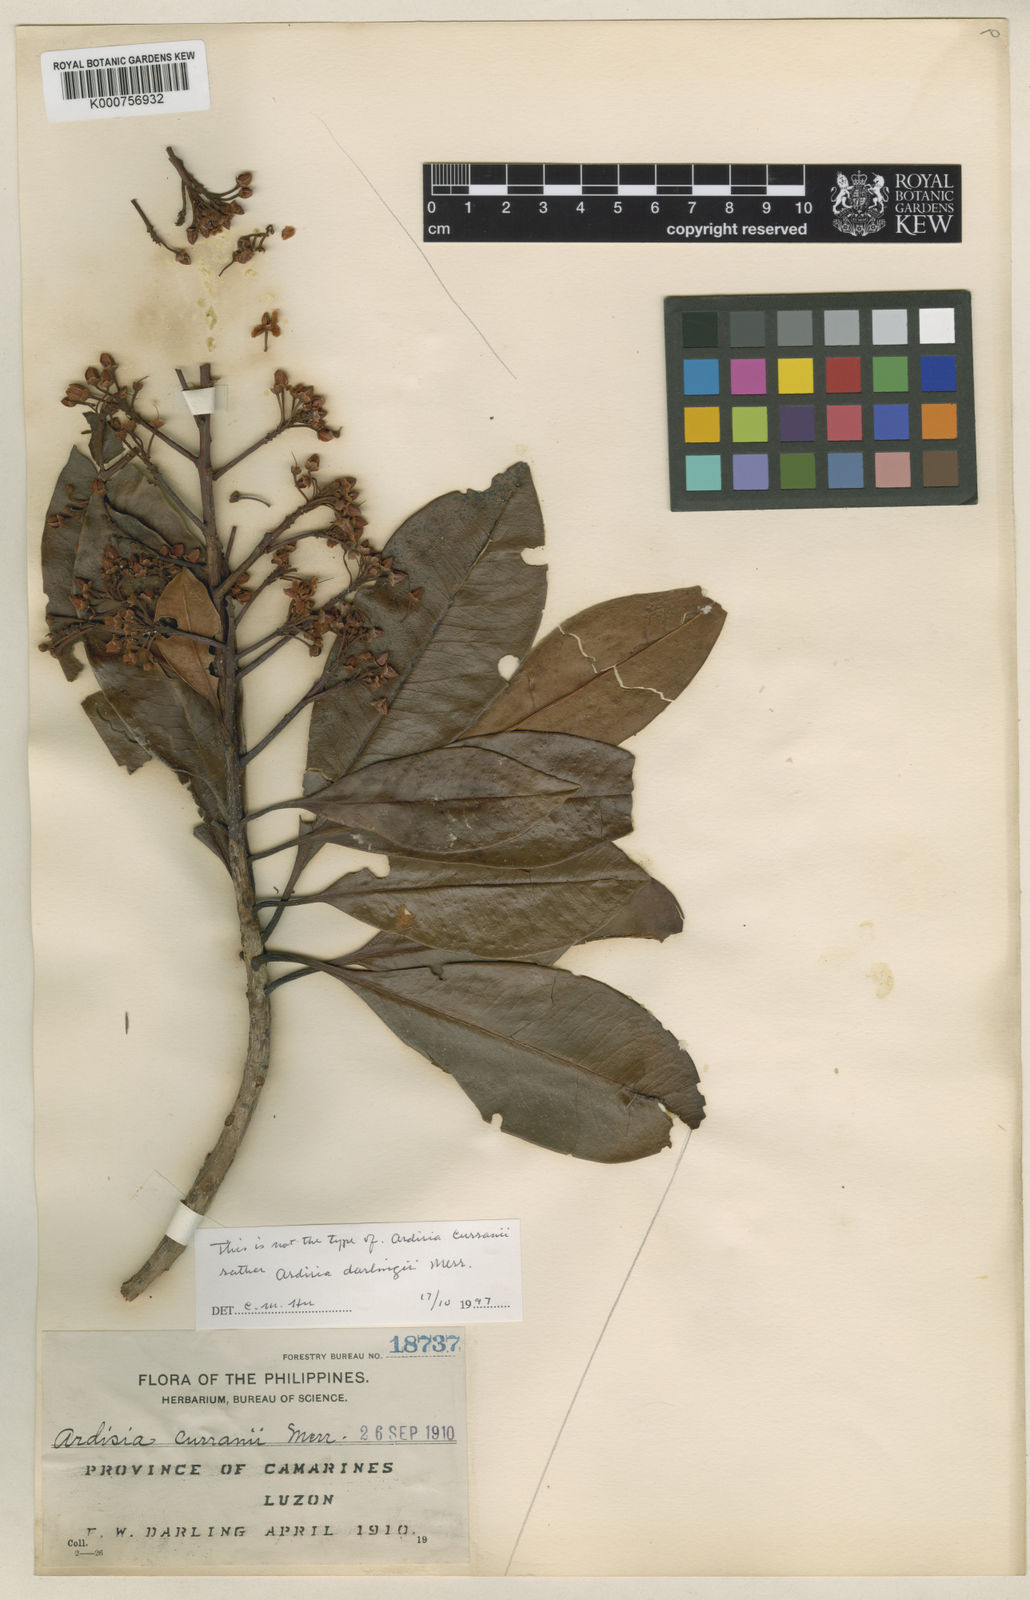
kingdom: Plantae
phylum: Tracheophyta
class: Magnoliopsida
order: Ericales
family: Primulaceae
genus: Ardisia
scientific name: Ardisia curranii
